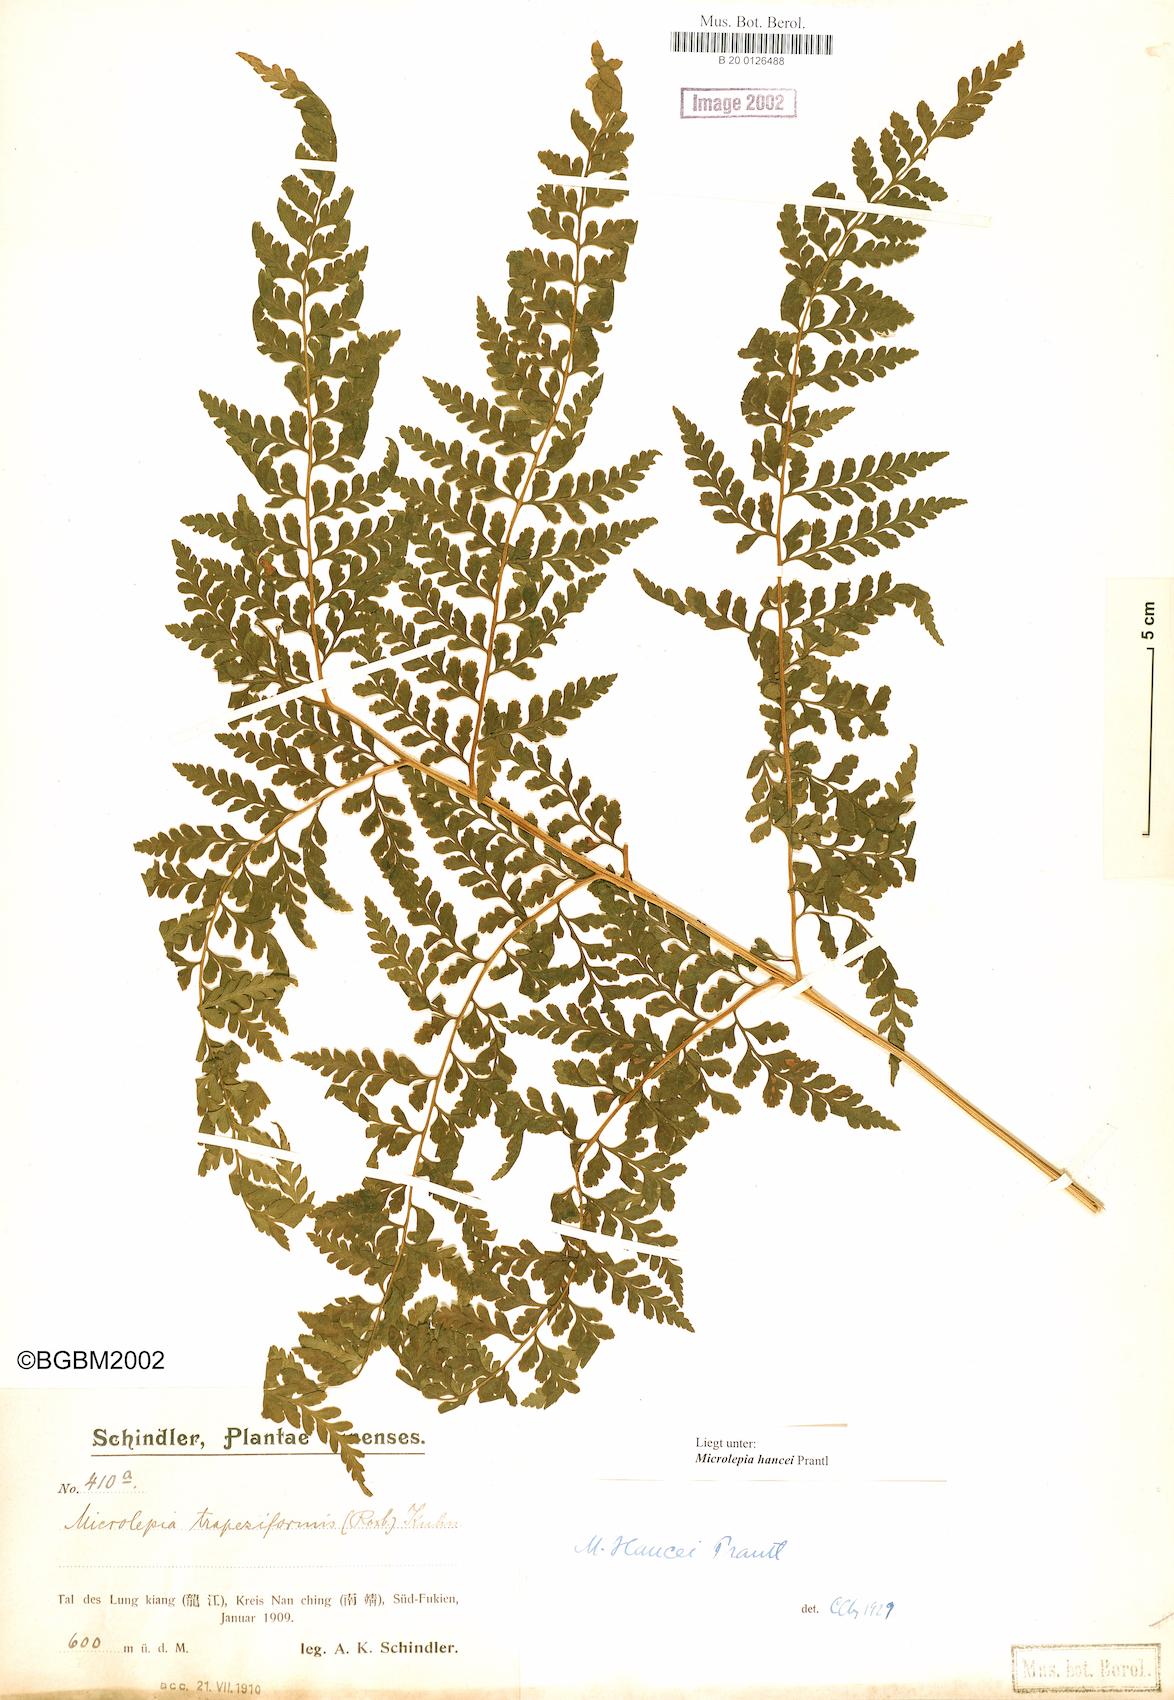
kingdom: Plantae
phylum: Tracheophyta
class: Polypodiopsida
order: Polypodiales
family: Dennstaedtiaceae
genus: Microlepia
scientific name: Microlepia nepalensis
